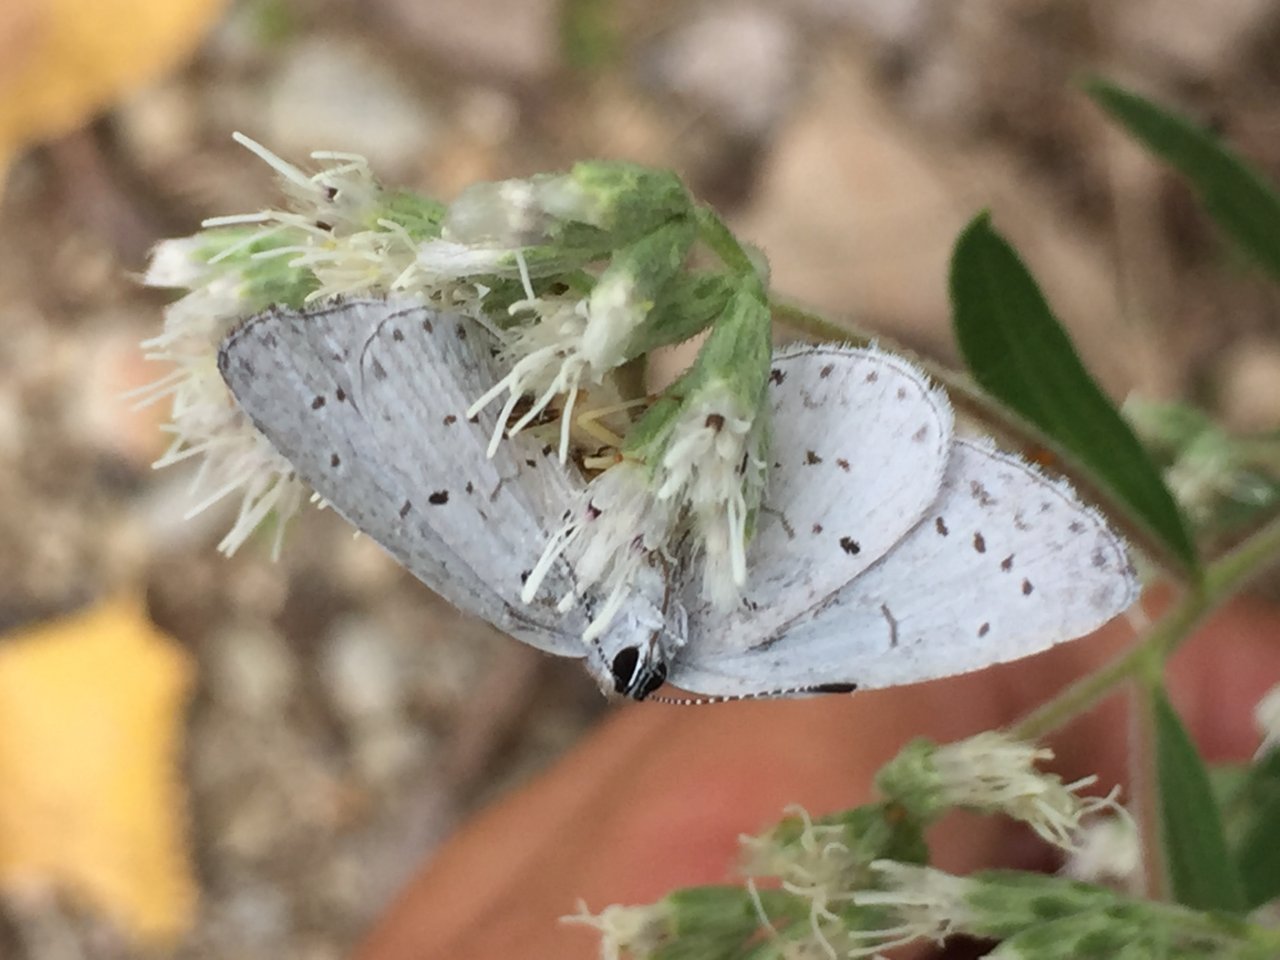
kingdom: Animalia
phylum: Arthropoda
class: Insecta
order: Lepidoptera
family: Lycaenidae
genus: Cyaniris
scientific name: Cyaniris neglecta
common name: Summer Azure
